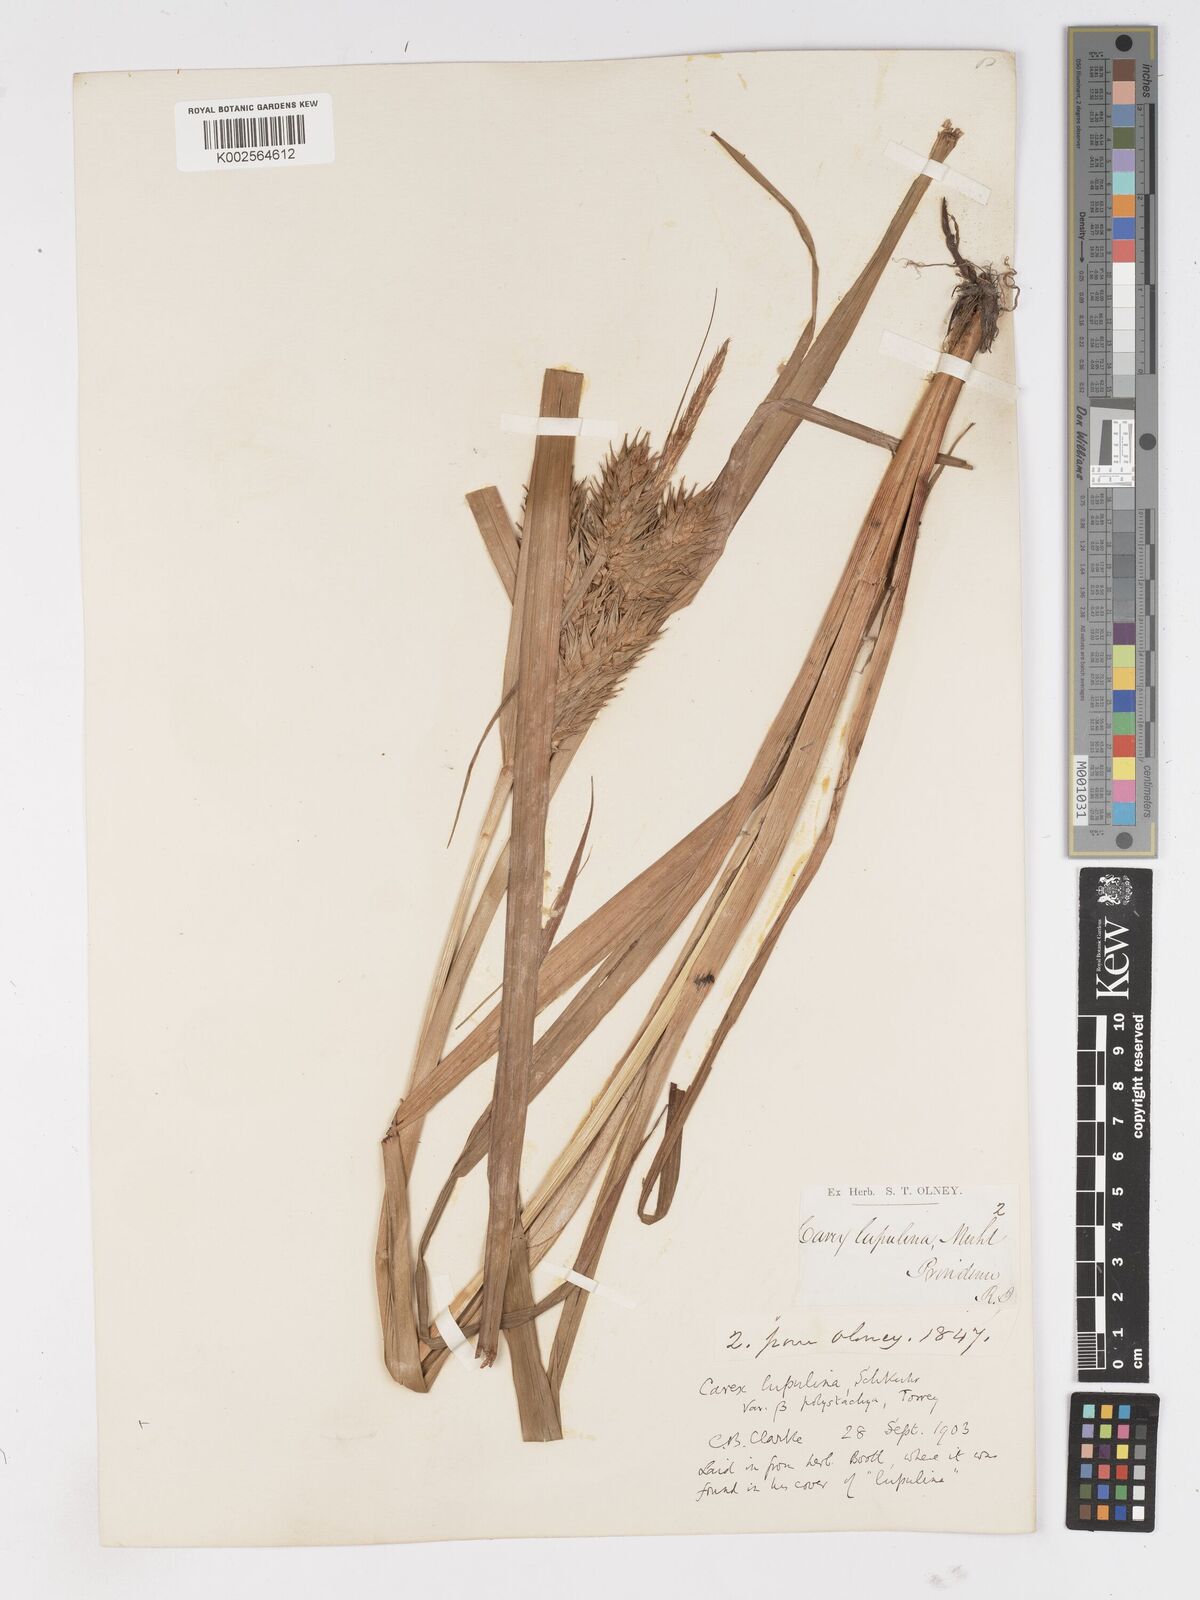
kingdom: Plantae
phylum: Tracheophyta
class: Liliopsida
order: Poales
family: Cyperaceae
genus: Carex
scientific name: Carex lupuliformis
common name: False hop sedge
